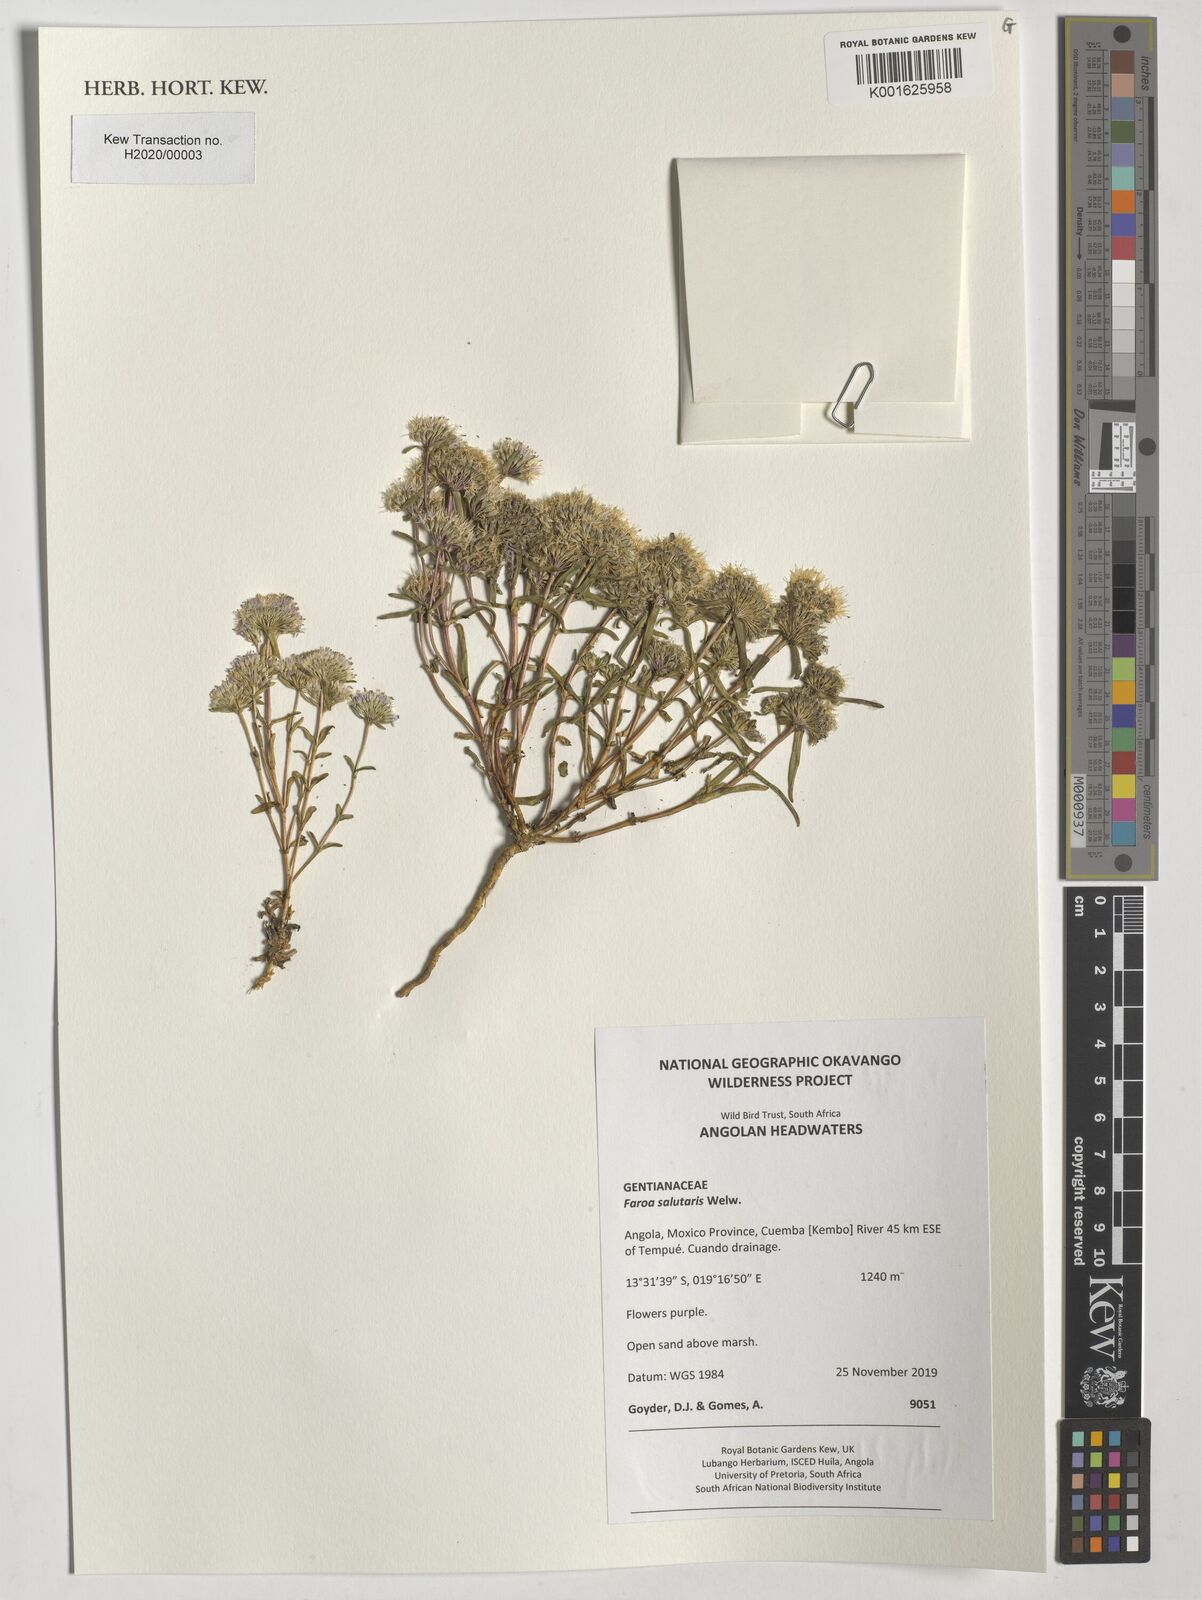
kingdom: Plantae
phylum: Tracheophyta
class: Magnoliopsida
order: Gentianales
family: Gentianaceae
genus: Faroa
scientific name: Faroa salutaris
